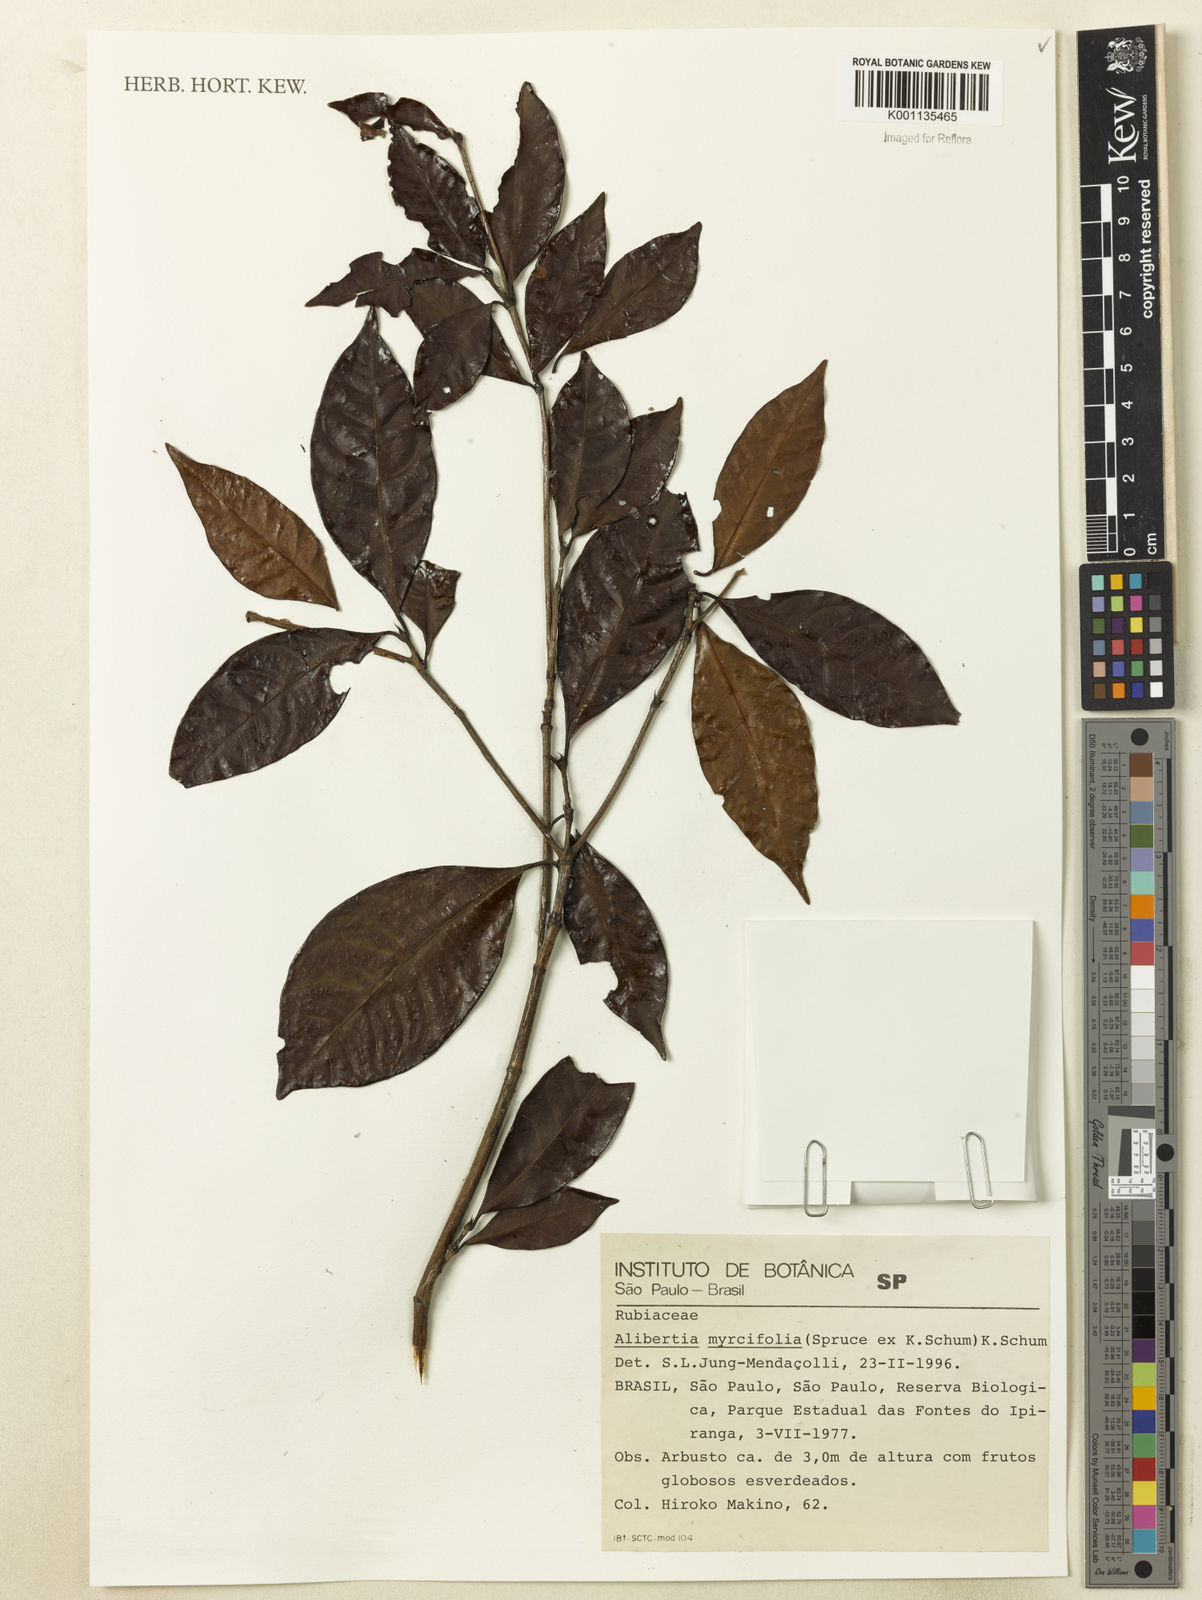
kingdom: Plantae
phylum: Tracheophyta
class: Magnoliopsida
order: Gentianales
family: Rubiaceae
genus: Cordiera
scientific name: Cordiera myrciifolia
